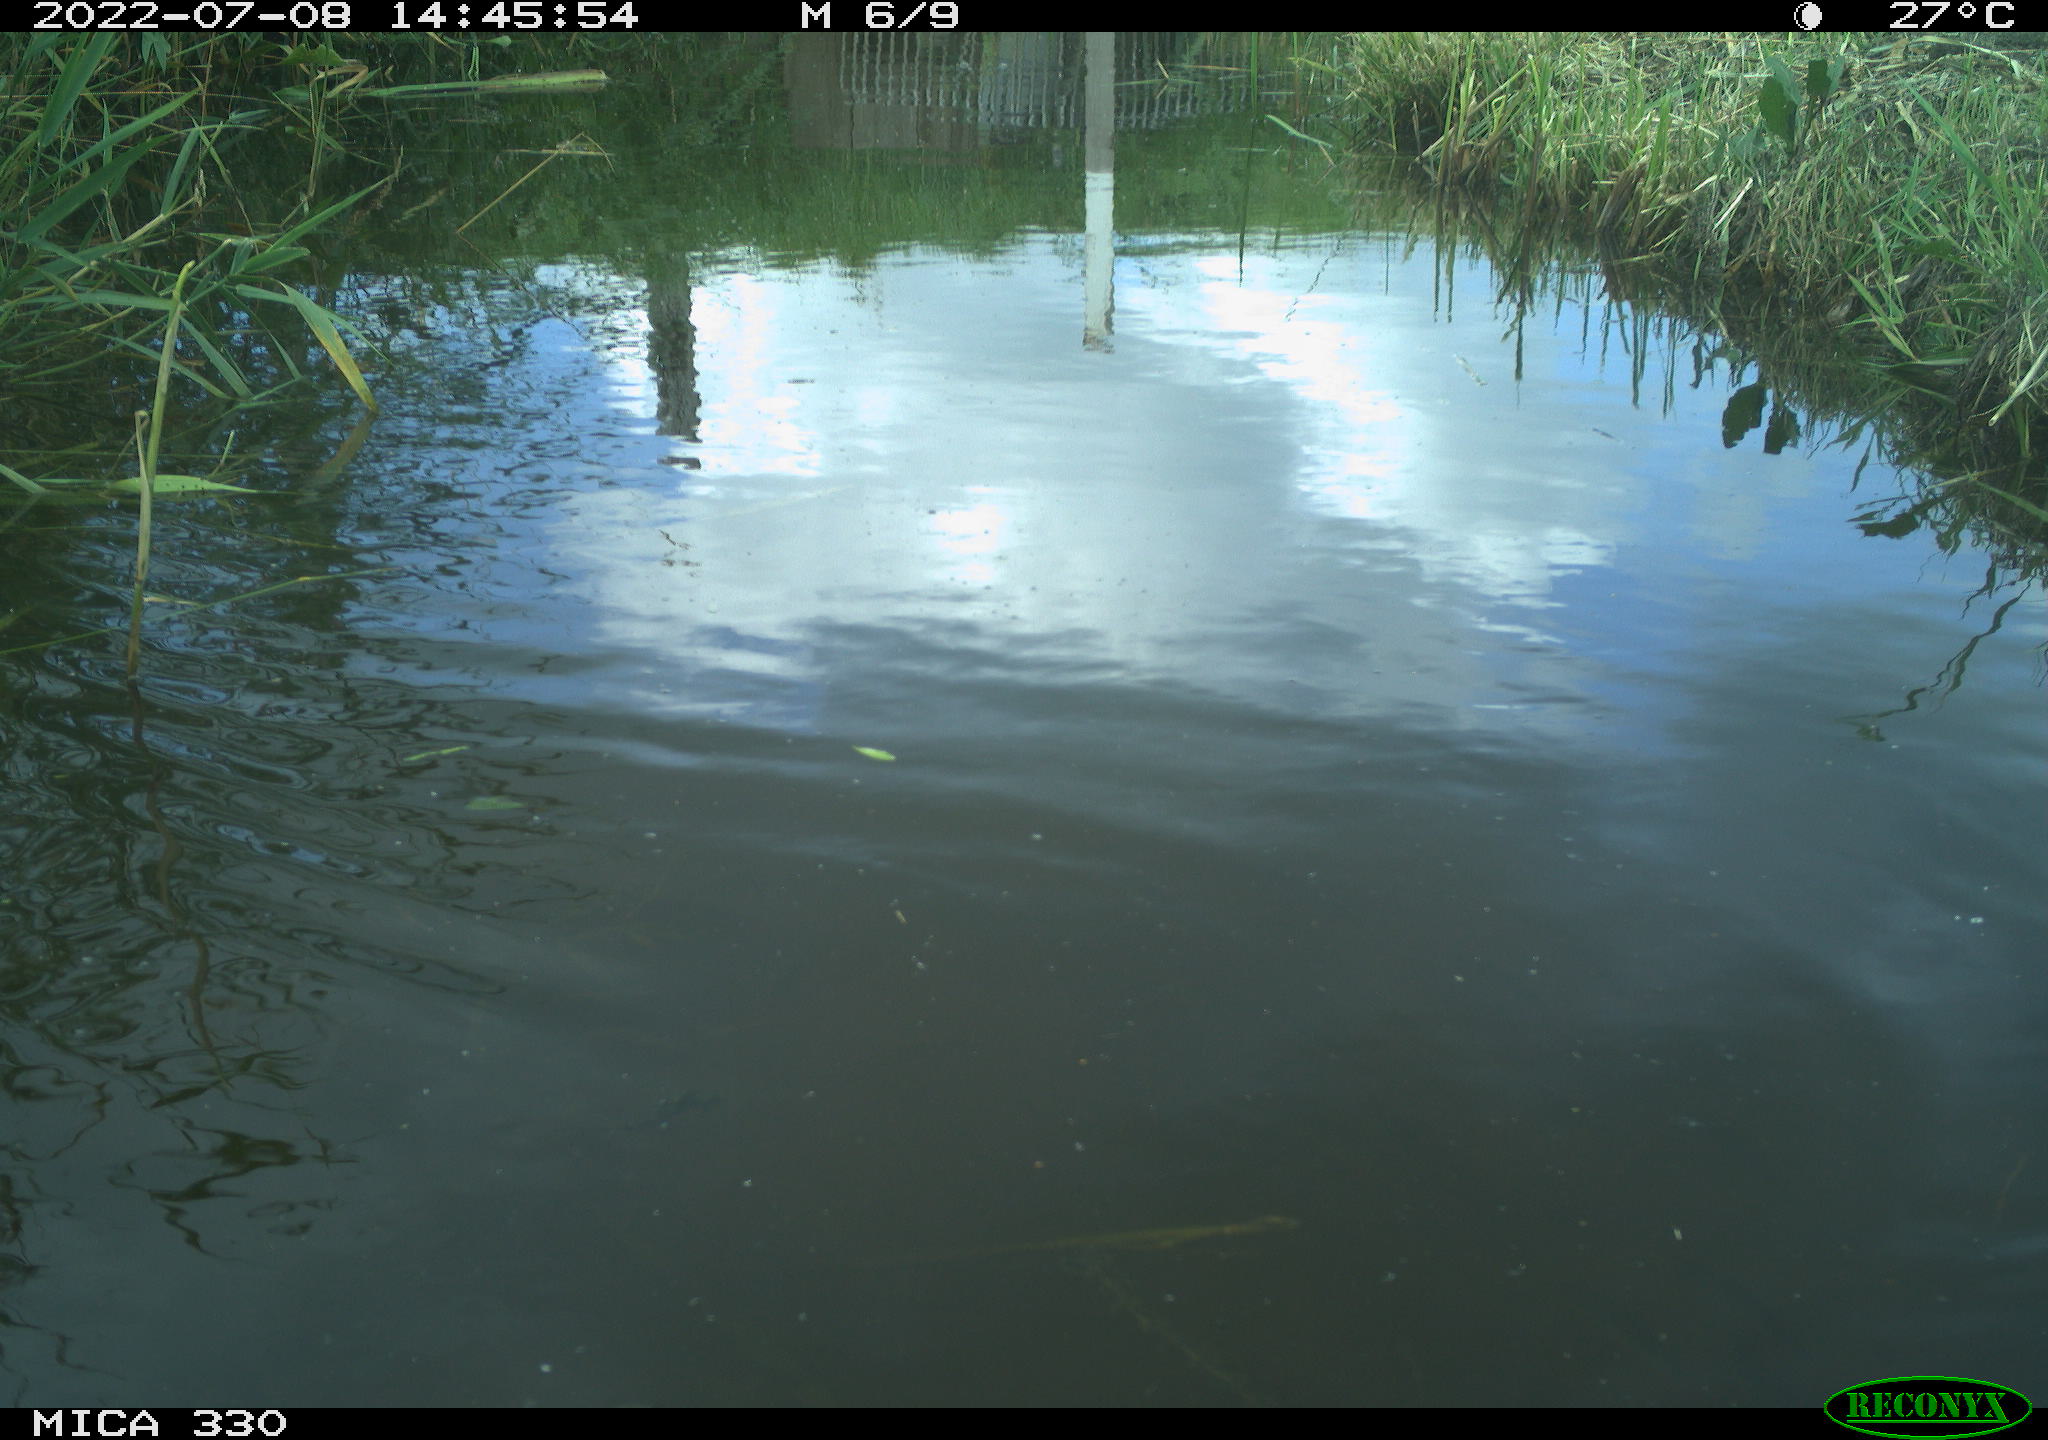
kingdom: Animalia
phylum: Chordata
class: Aves
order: Anseriformes
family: Anatidae
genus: Mareca
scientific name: Mareca strepera
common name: Gadwall
